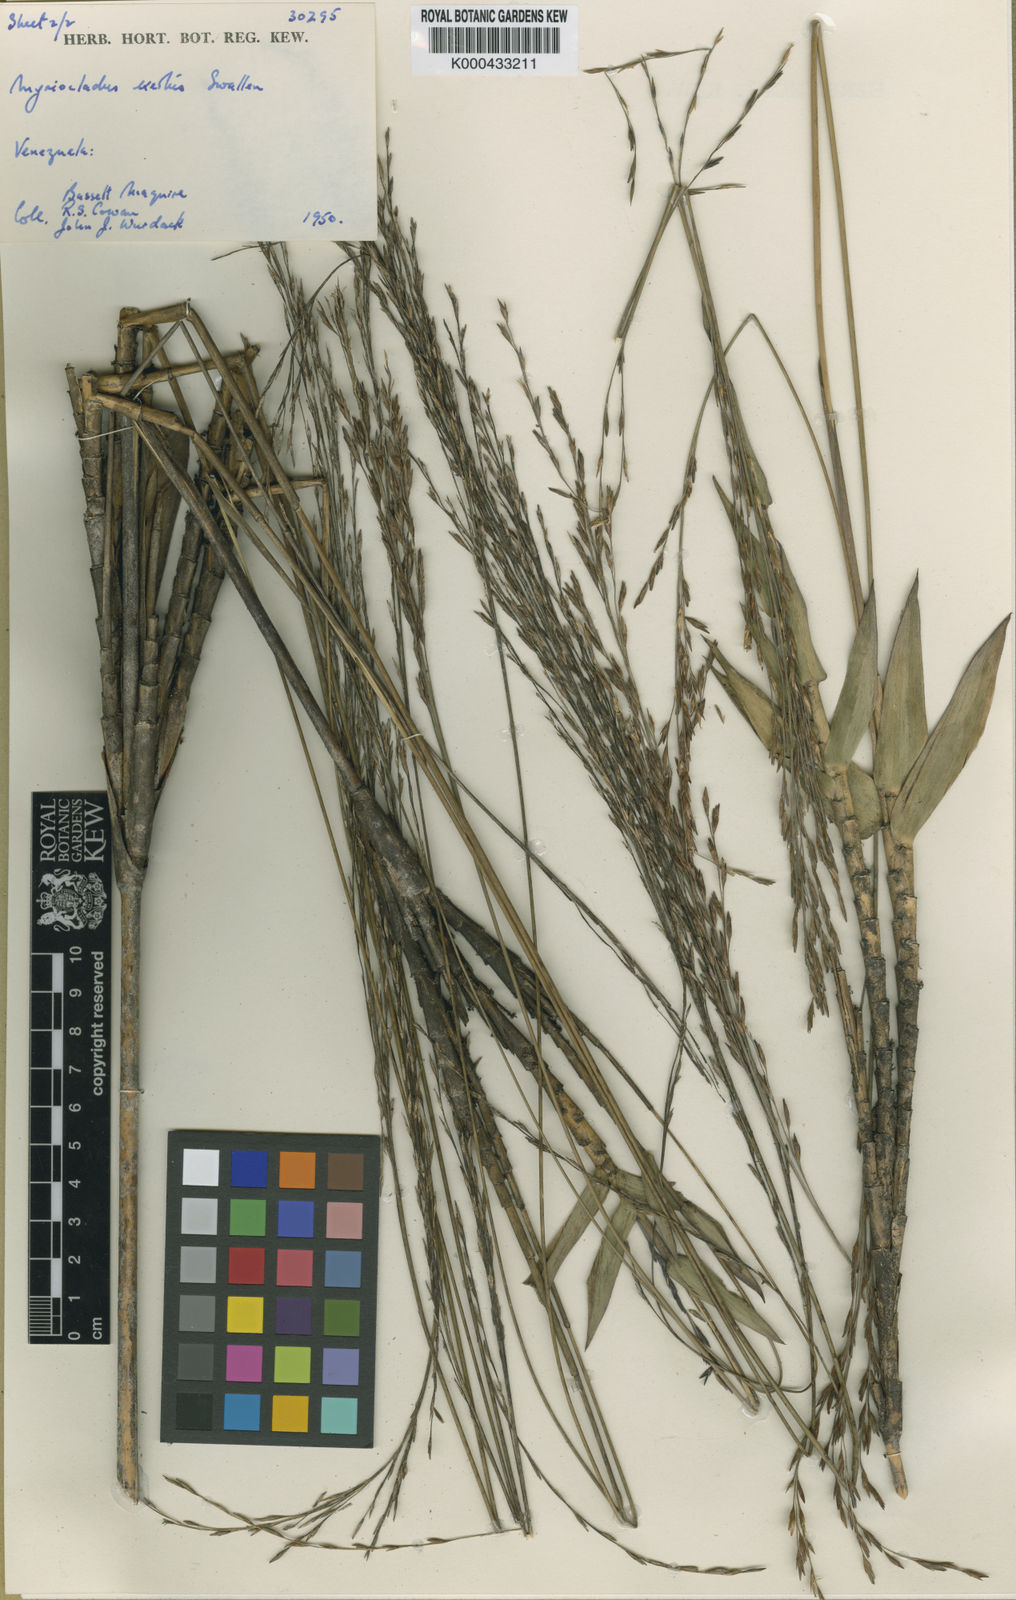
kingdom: Plantae
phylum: Tracheophyta
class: Liliopsida
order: Poales
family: Poaceae
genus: Myriocladus
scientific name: Myriocladus exsertus
